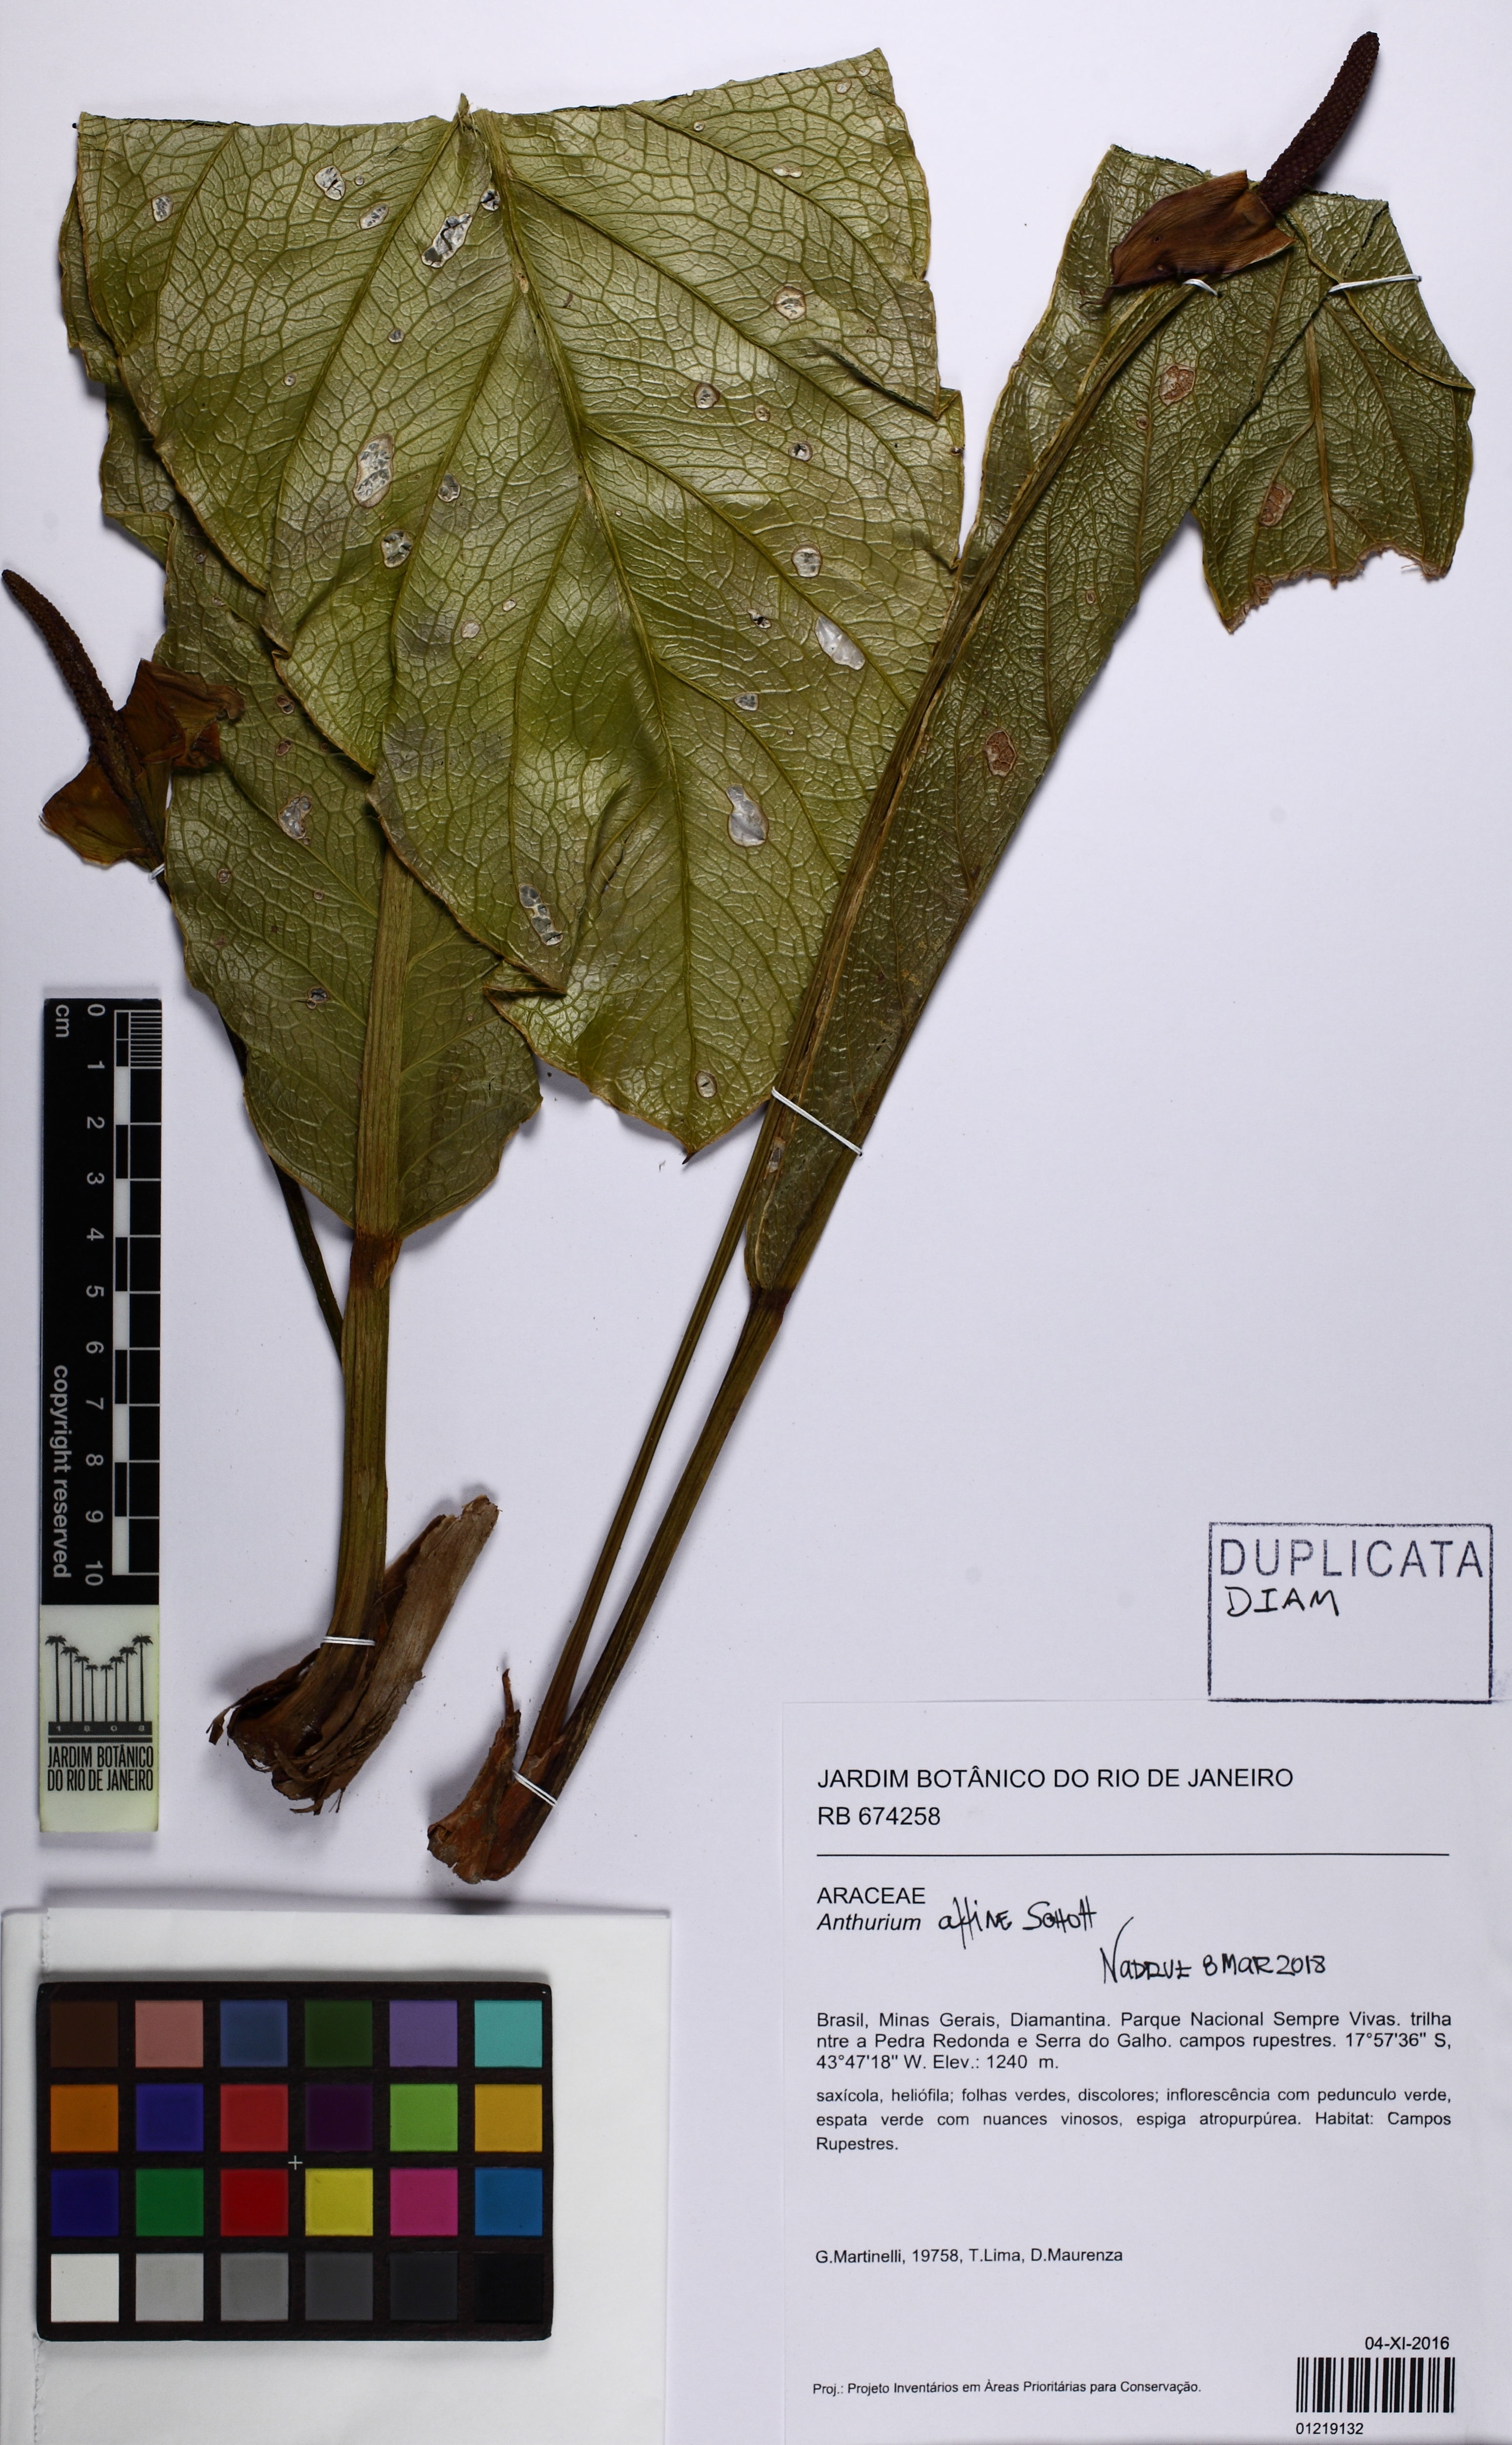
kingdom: Plantae
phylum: Tracheophyta
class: Liliopsida
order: Alismatales
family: Araceae
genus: Anthurium
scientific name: Anthurium affine
